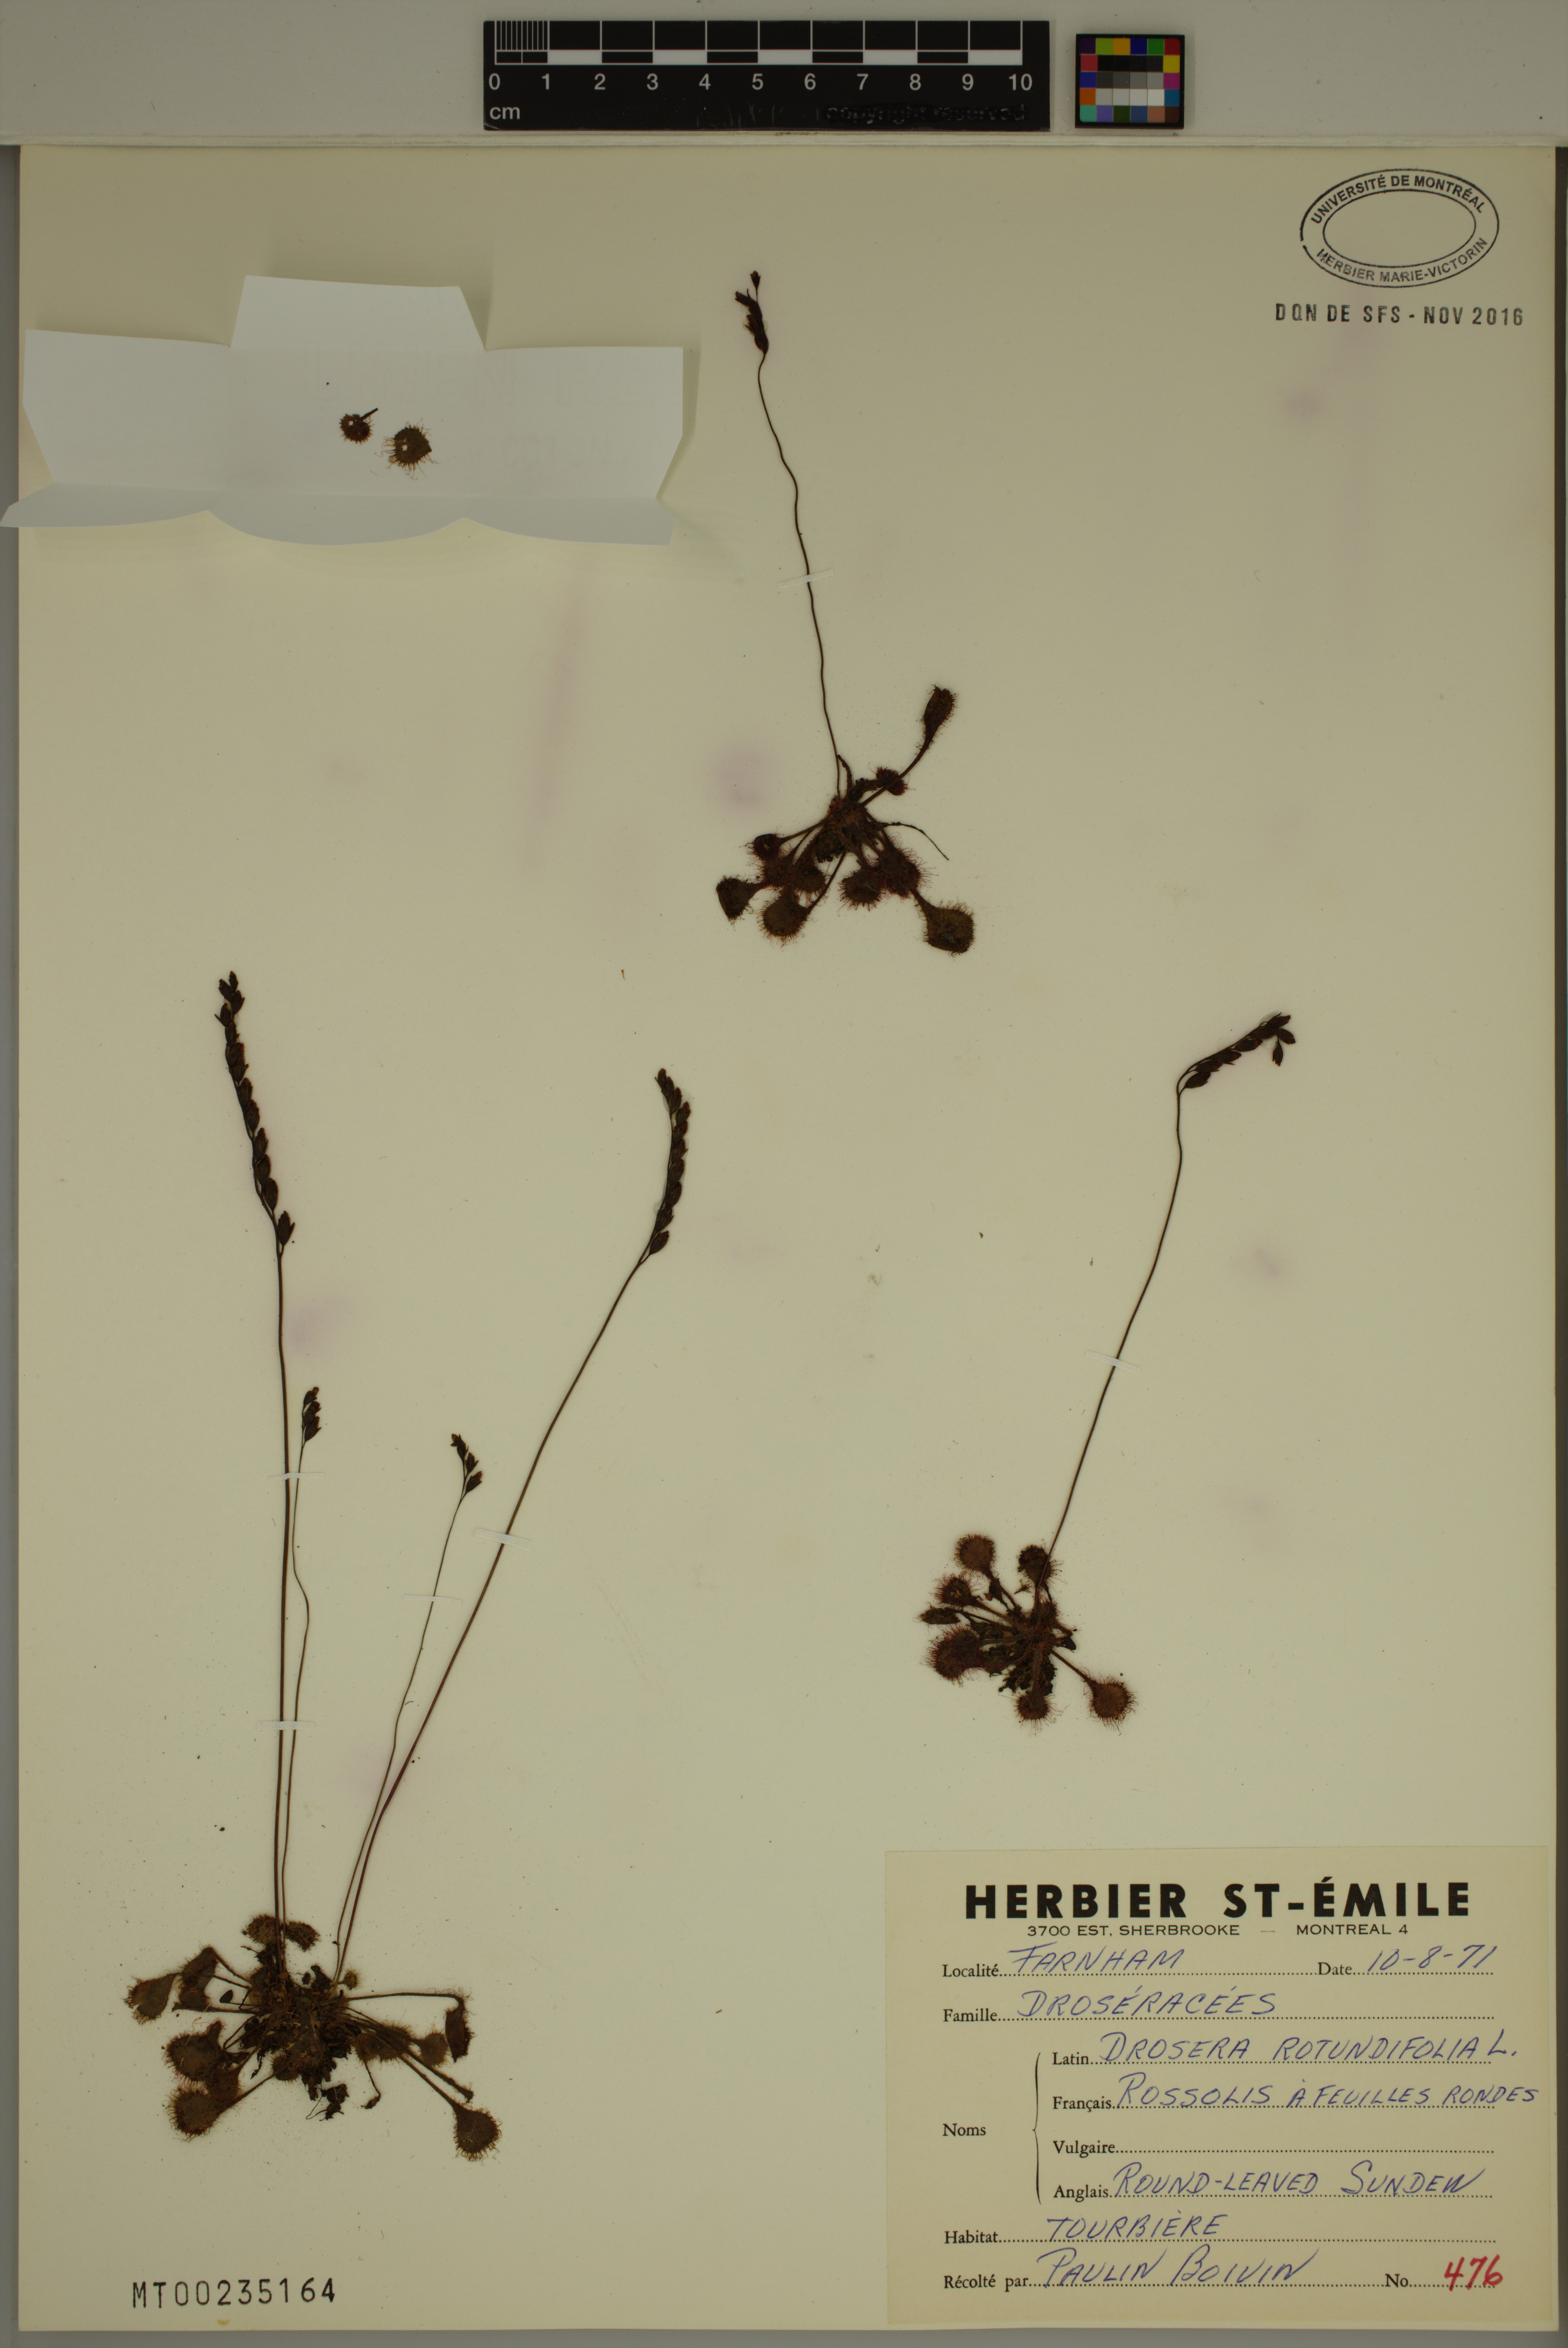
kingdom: Plantae
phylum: Tracheophyta
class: Magnoliopsida
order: Caryophyllales
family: Droseraceae
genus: Drosera
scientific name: Drosera rotundifolia
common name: Round-leaved sundew
